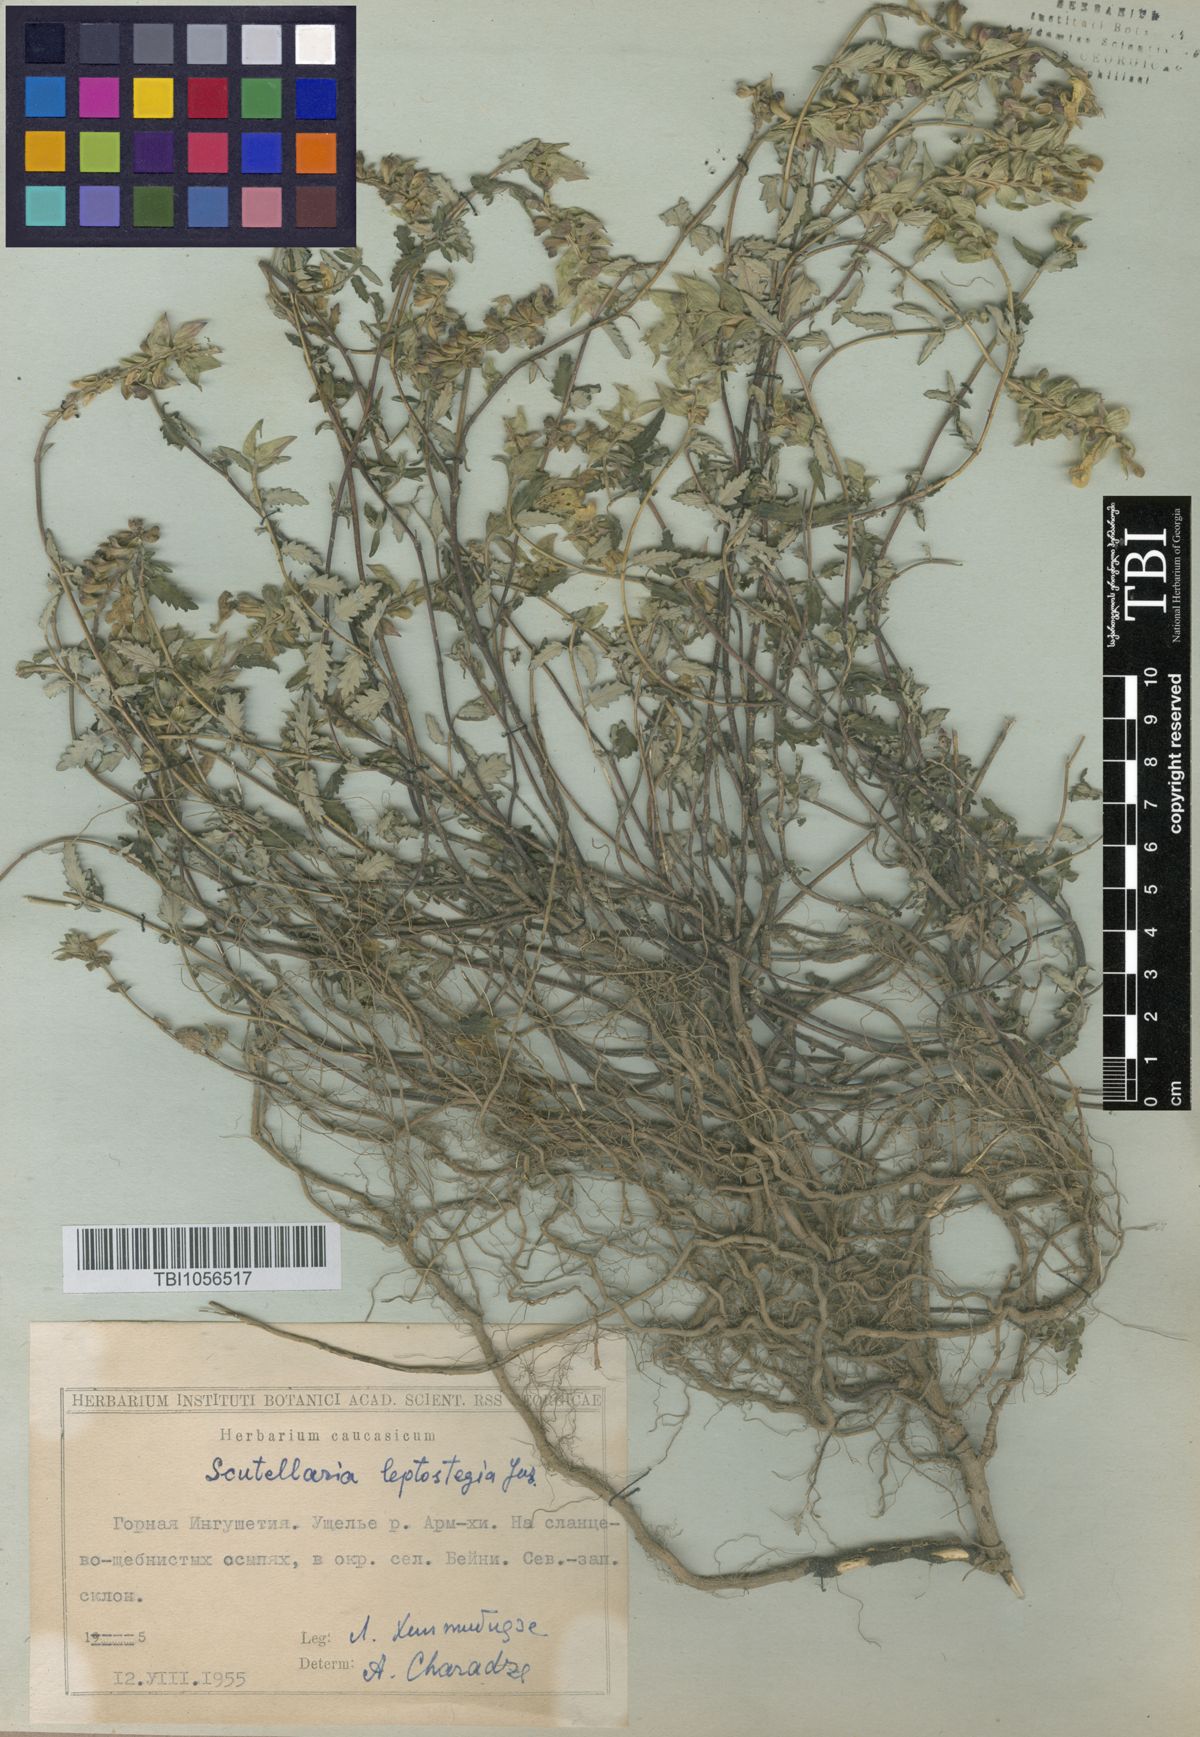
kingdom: Plantae
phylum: Tracheophyta
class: Magnoliopsida
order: Lamiales
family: Lamiaceae
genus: Scutellaria
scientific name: Scutellaria leptostegia
